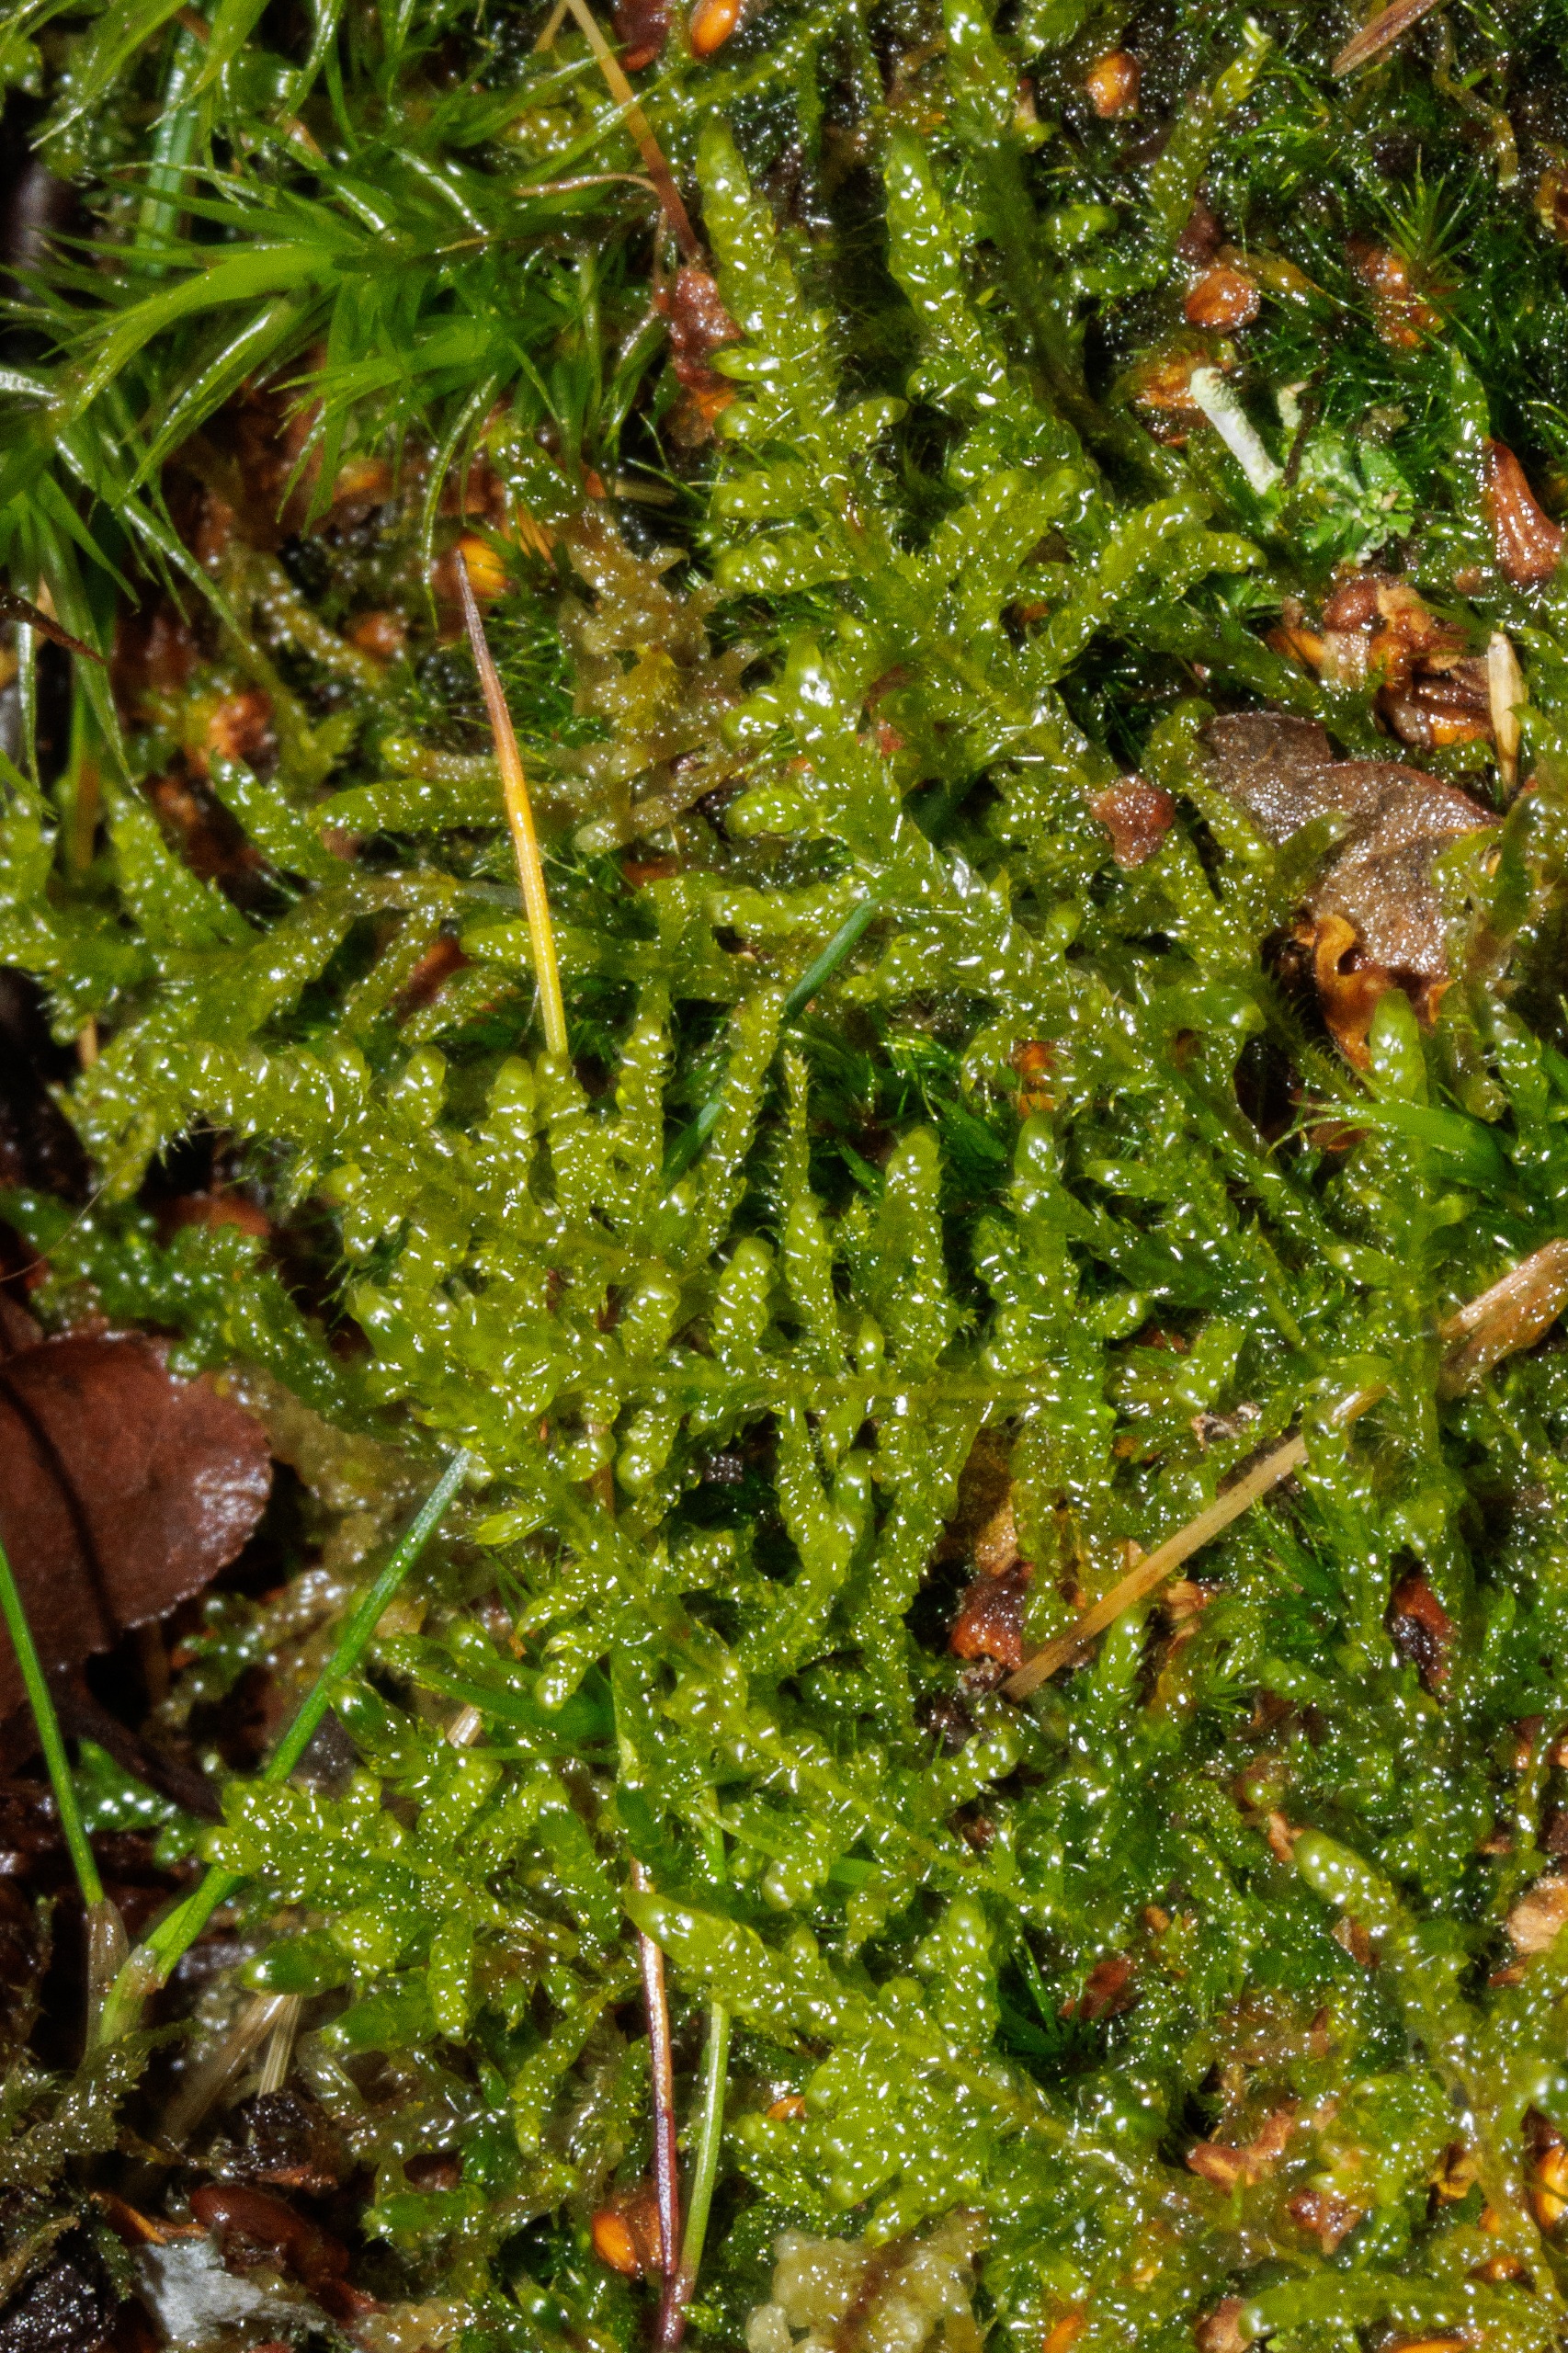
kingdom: Plantae
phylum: Bryophyta
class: Bryopsida
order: Hypnales
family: Hypnaceae
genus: Hypnum
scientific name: Hypnum jutlandicum
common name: Hede-cypresmos
